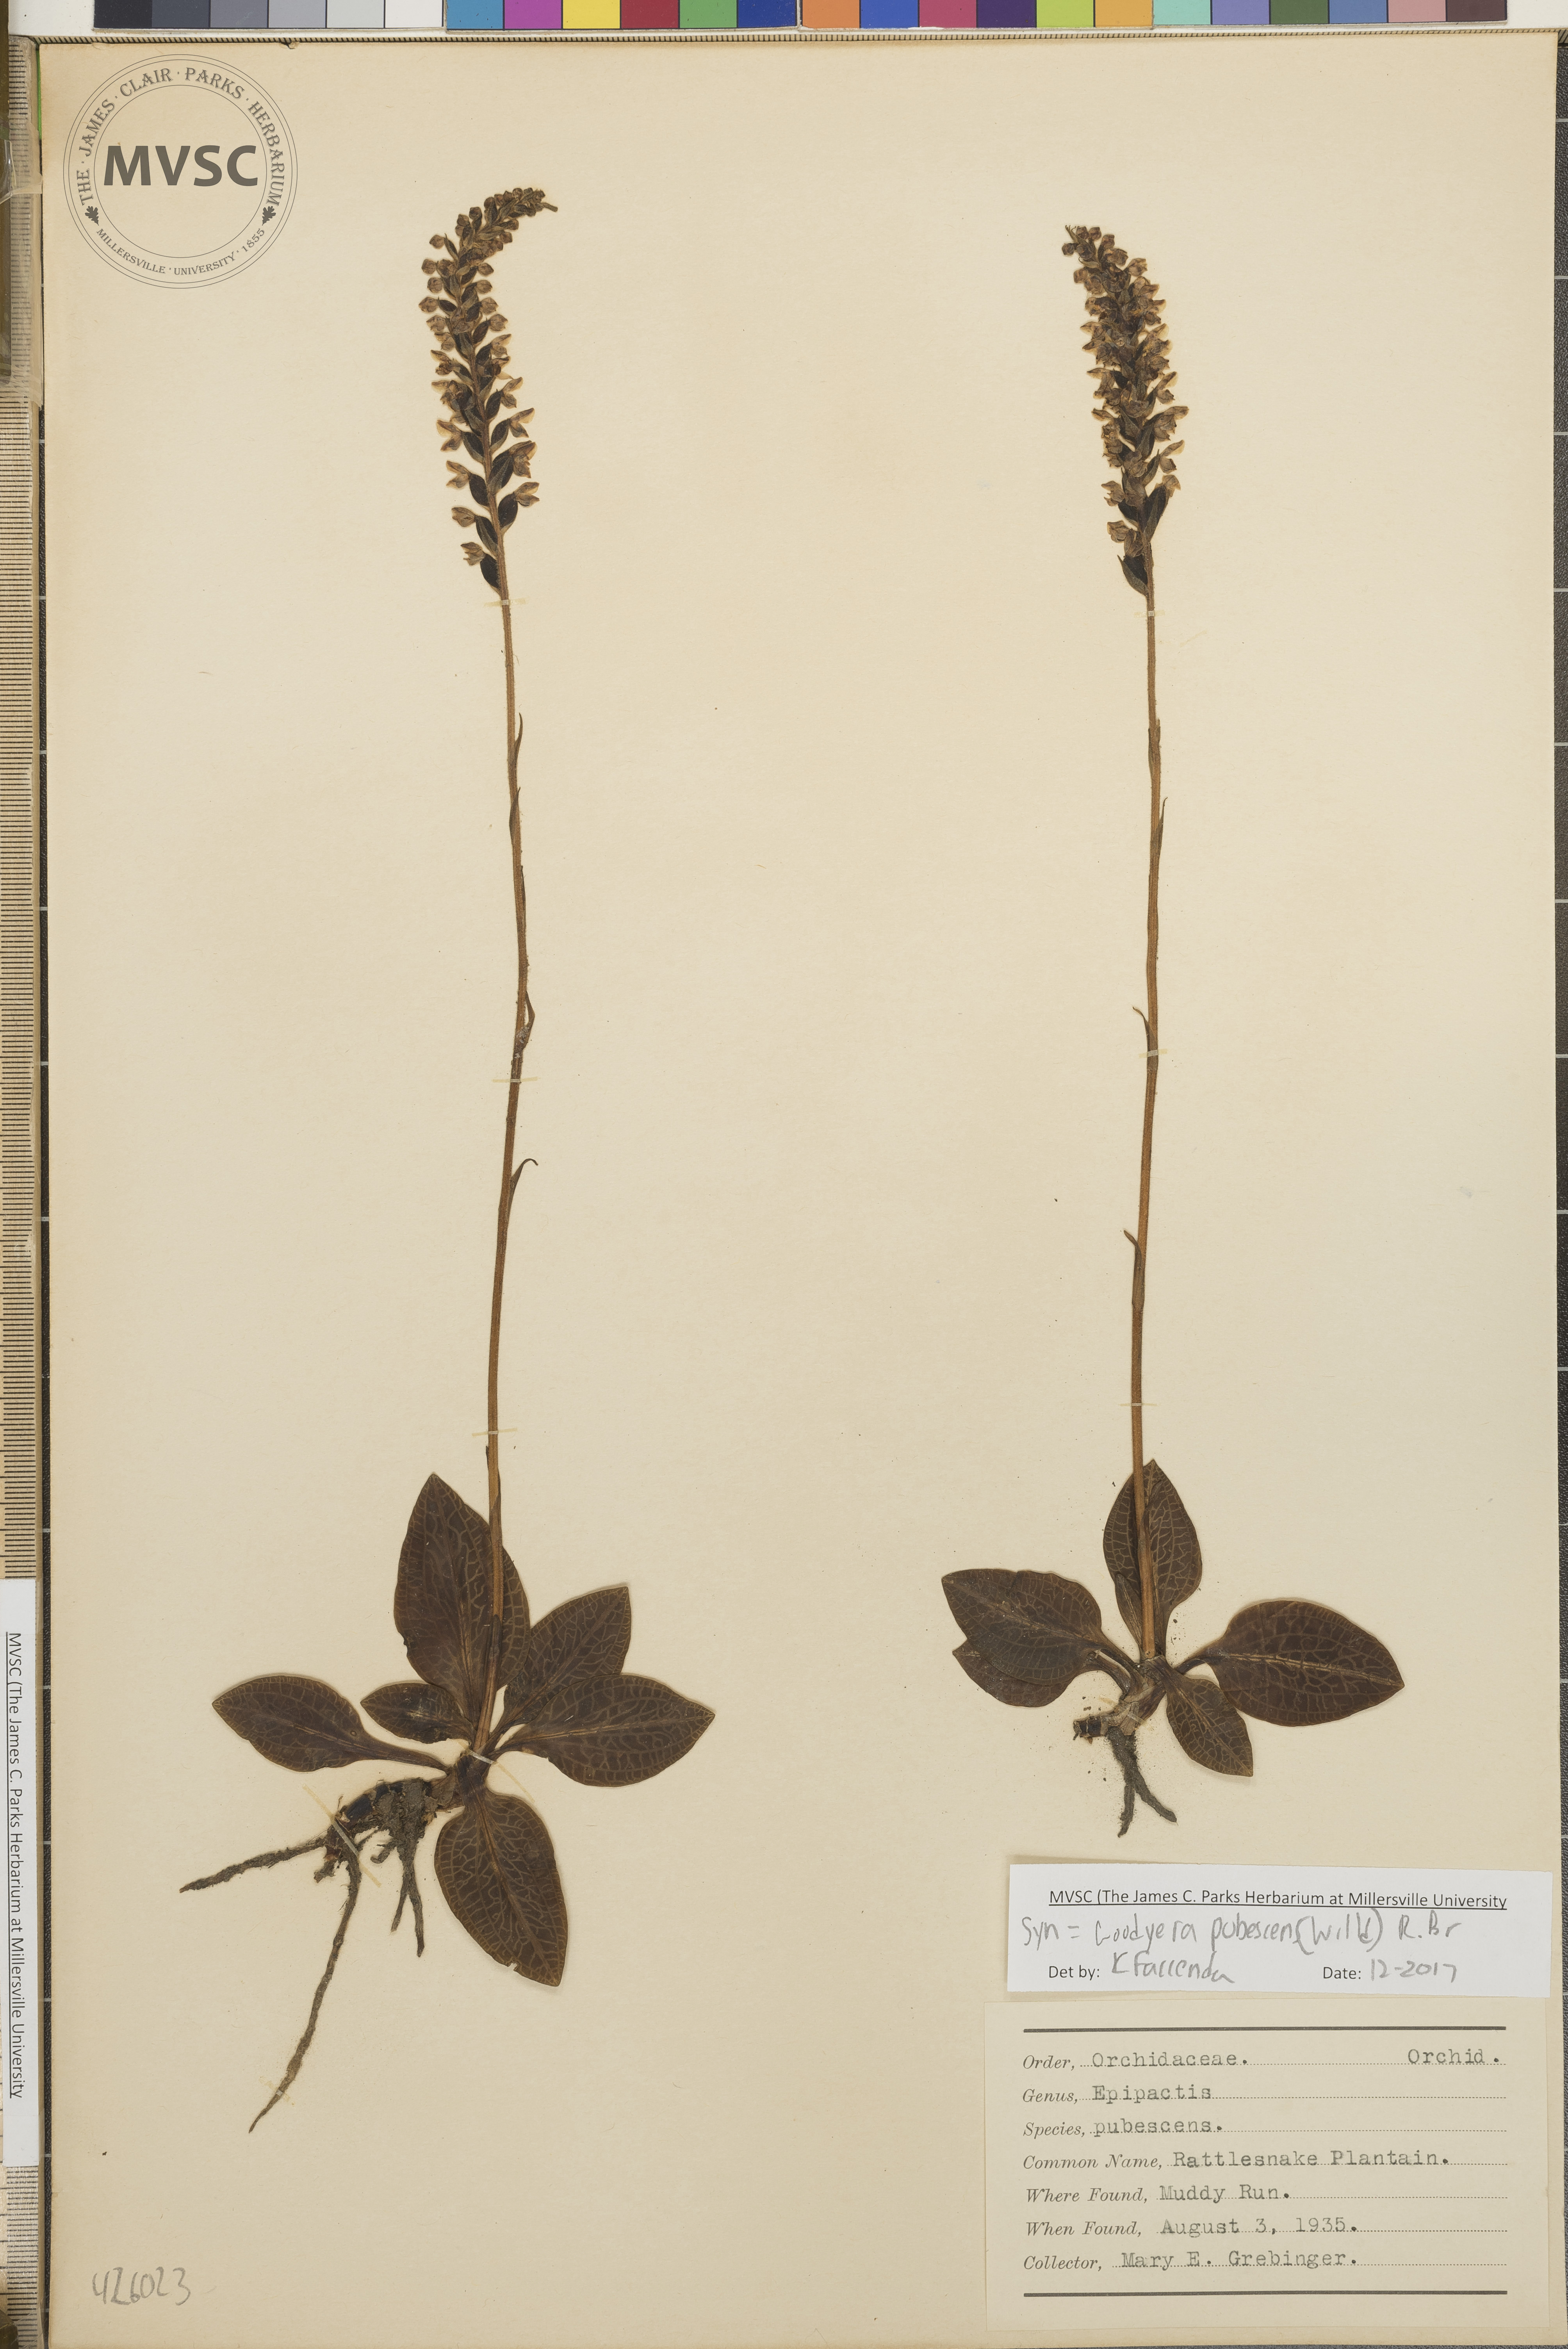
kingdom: Plantae
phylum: Tracheophyta
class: Liliopsida
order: Asparagales
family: Orchidaceae
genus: Goodyera
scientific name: Goodyera pubescens
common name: Rattlesnake plantain
